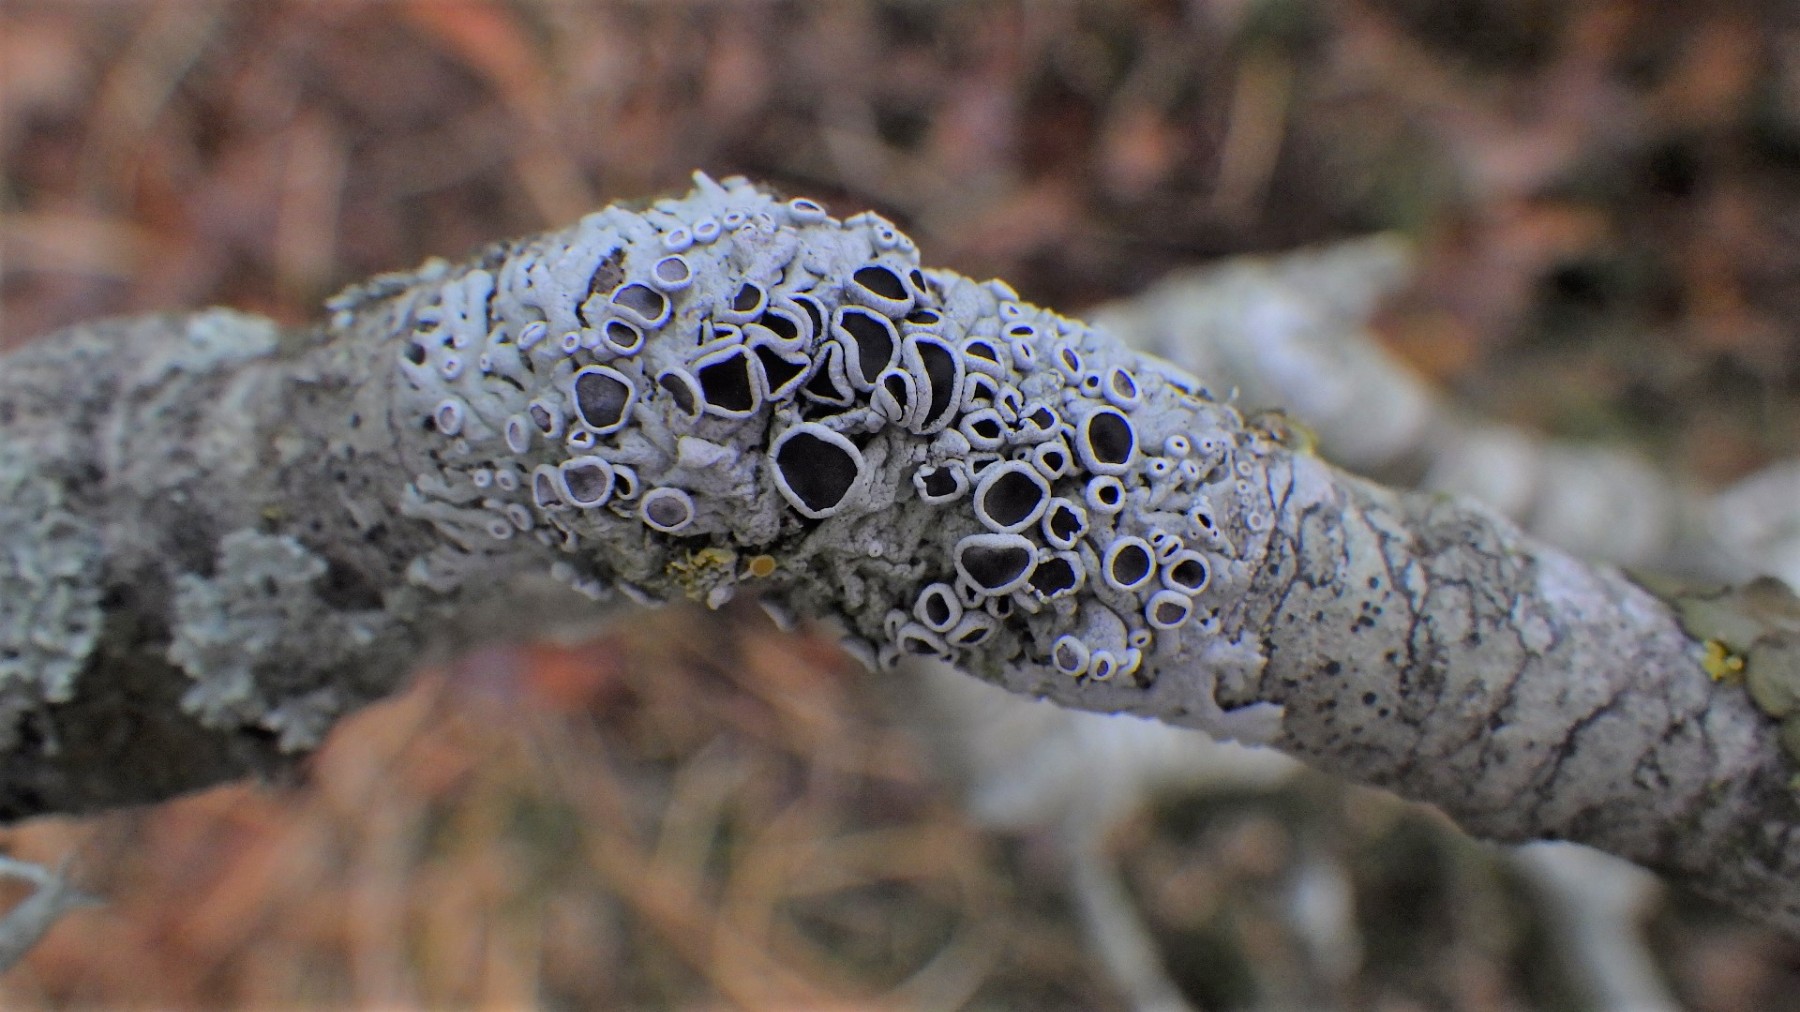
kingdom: Fungi
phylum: Ascomycota
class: Lecanoromycetes
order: Caliciales
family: Physciaceae
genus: Physcia
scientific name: Physcia aipolia
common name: hvidprikket rosetlav
